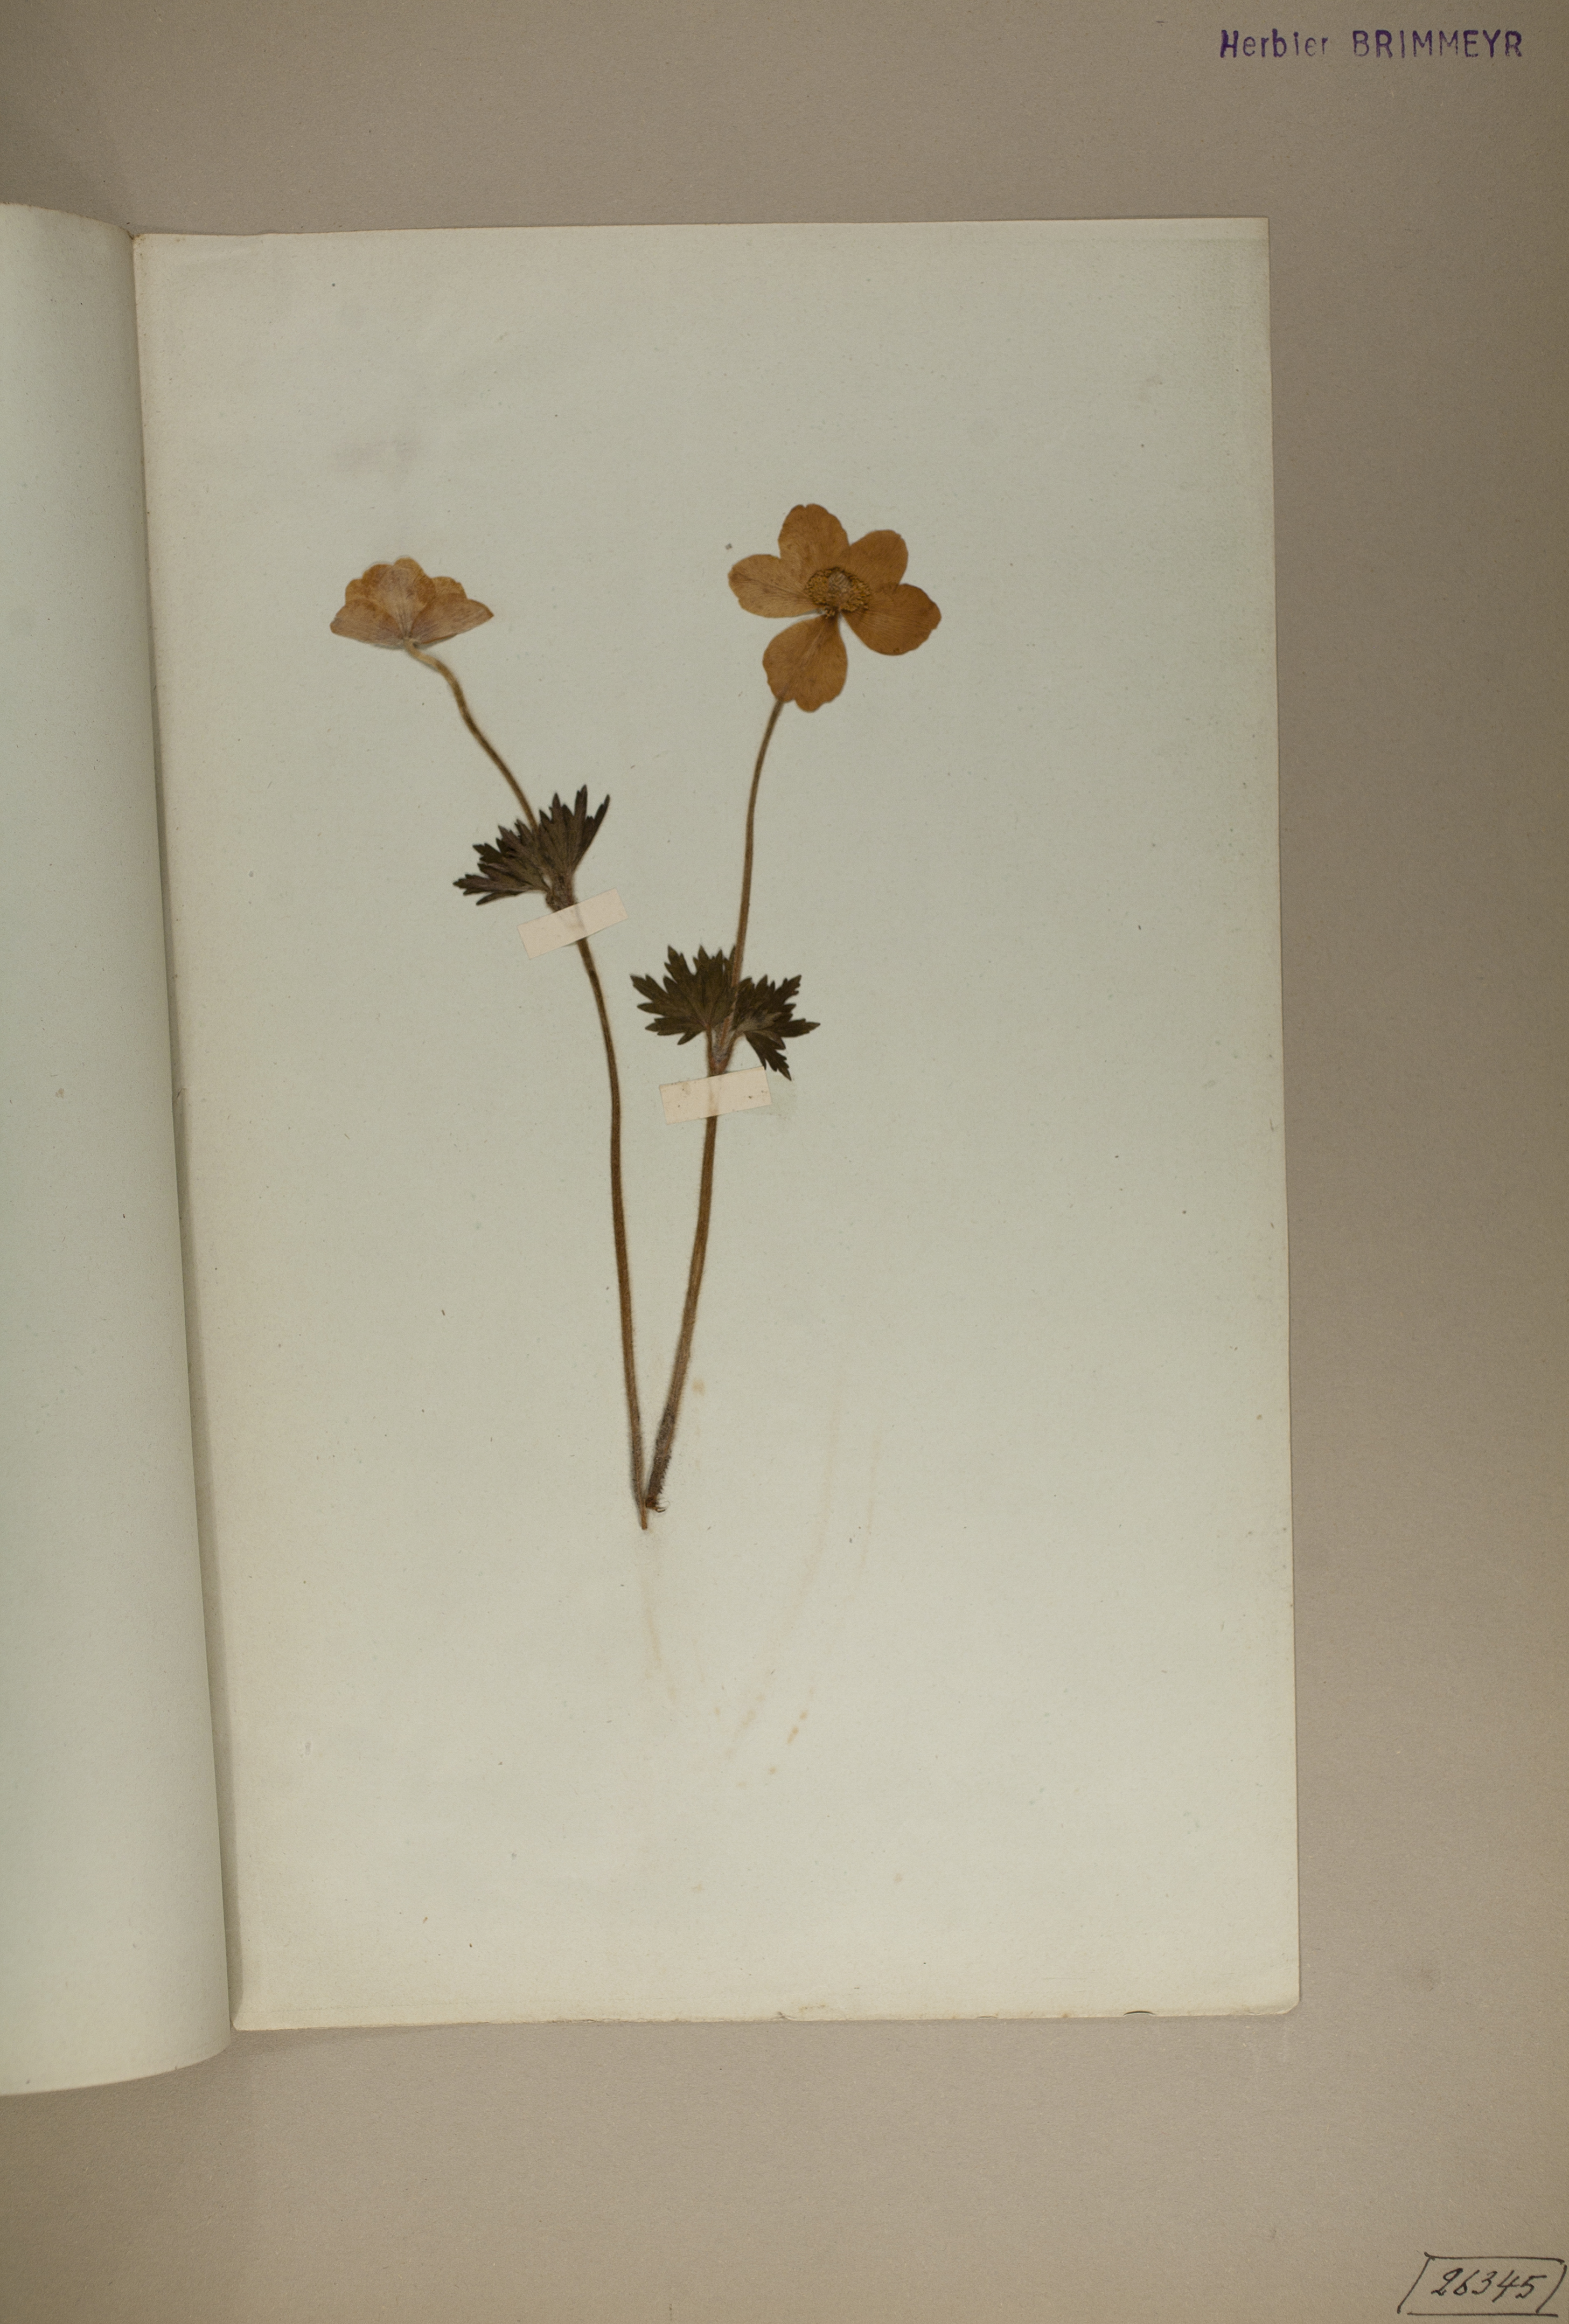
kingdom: Plantae
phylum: Tracheophyta
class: Magnoliopsida
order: Ranunculales
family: Ranunculaceae
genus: Anemone
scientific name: Anemone sylvestris
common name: Snowdrop anemone
